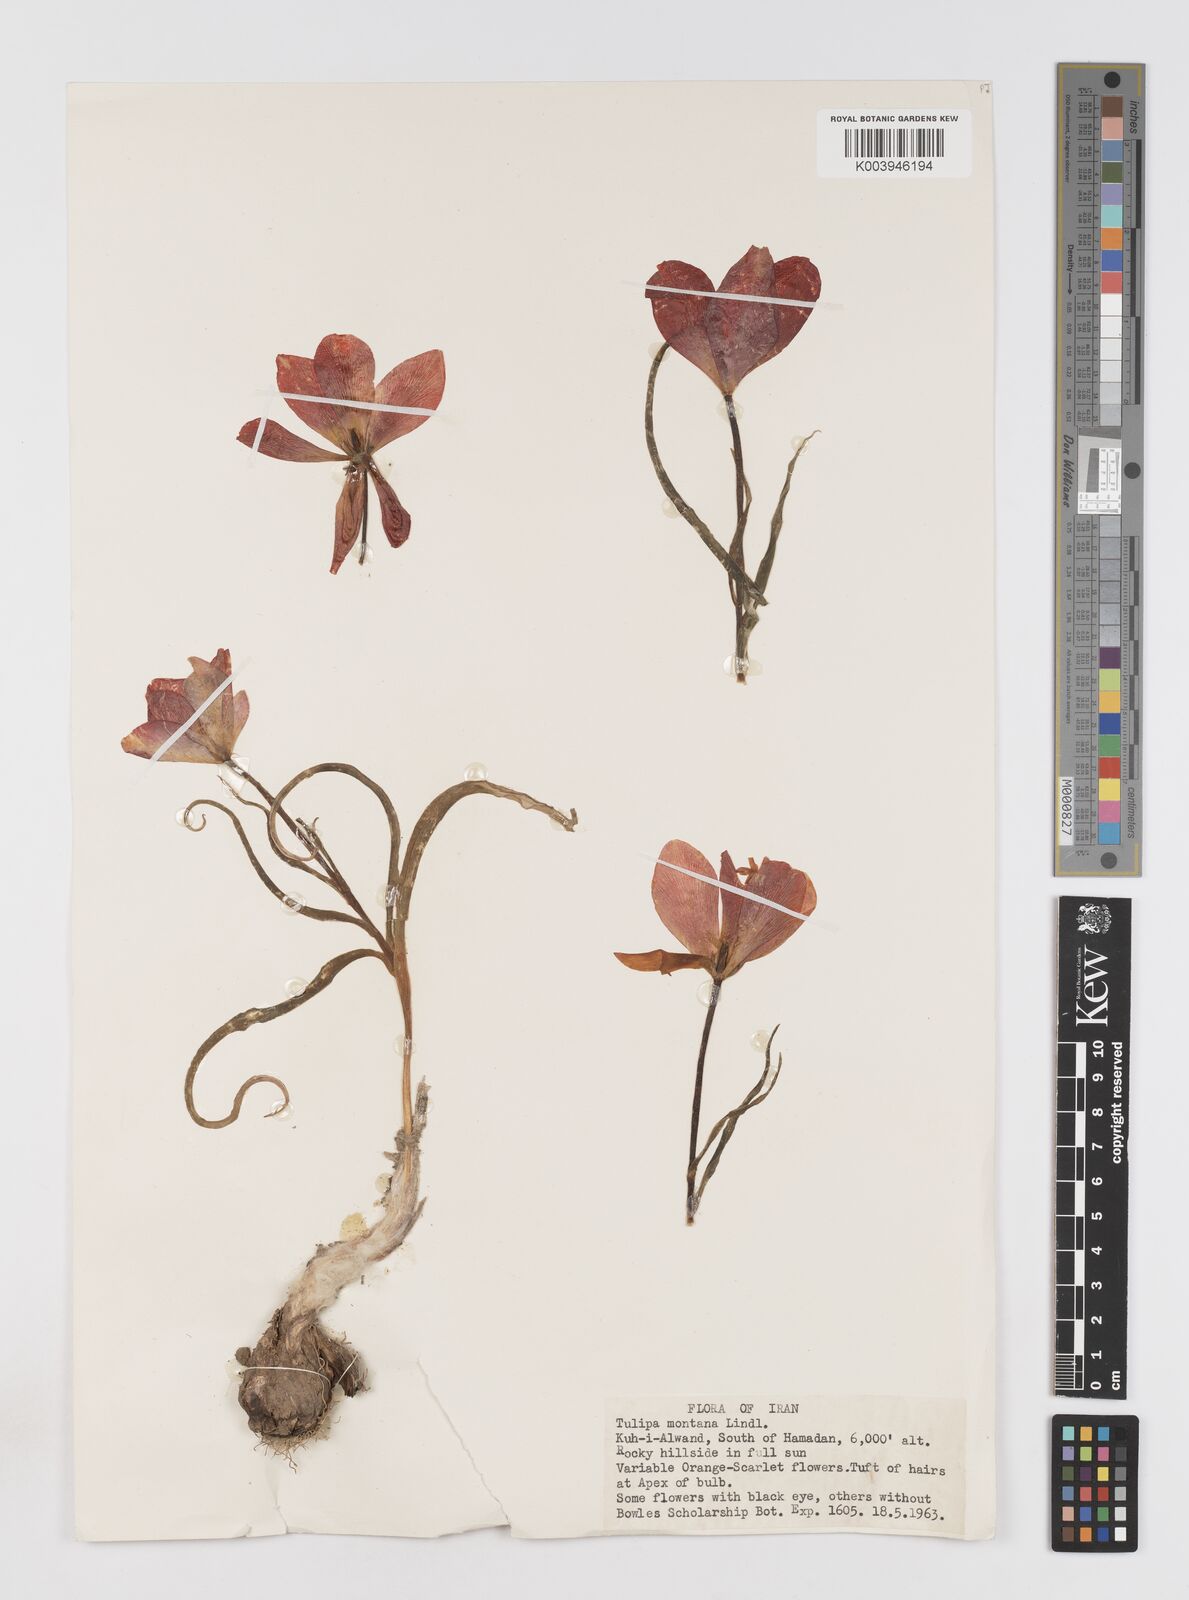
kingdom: Plantae
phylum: Tracheophyta
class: Liliopsida
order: Liliales
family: Liliaceae
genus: Tulipa
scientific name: Tulipa montana
